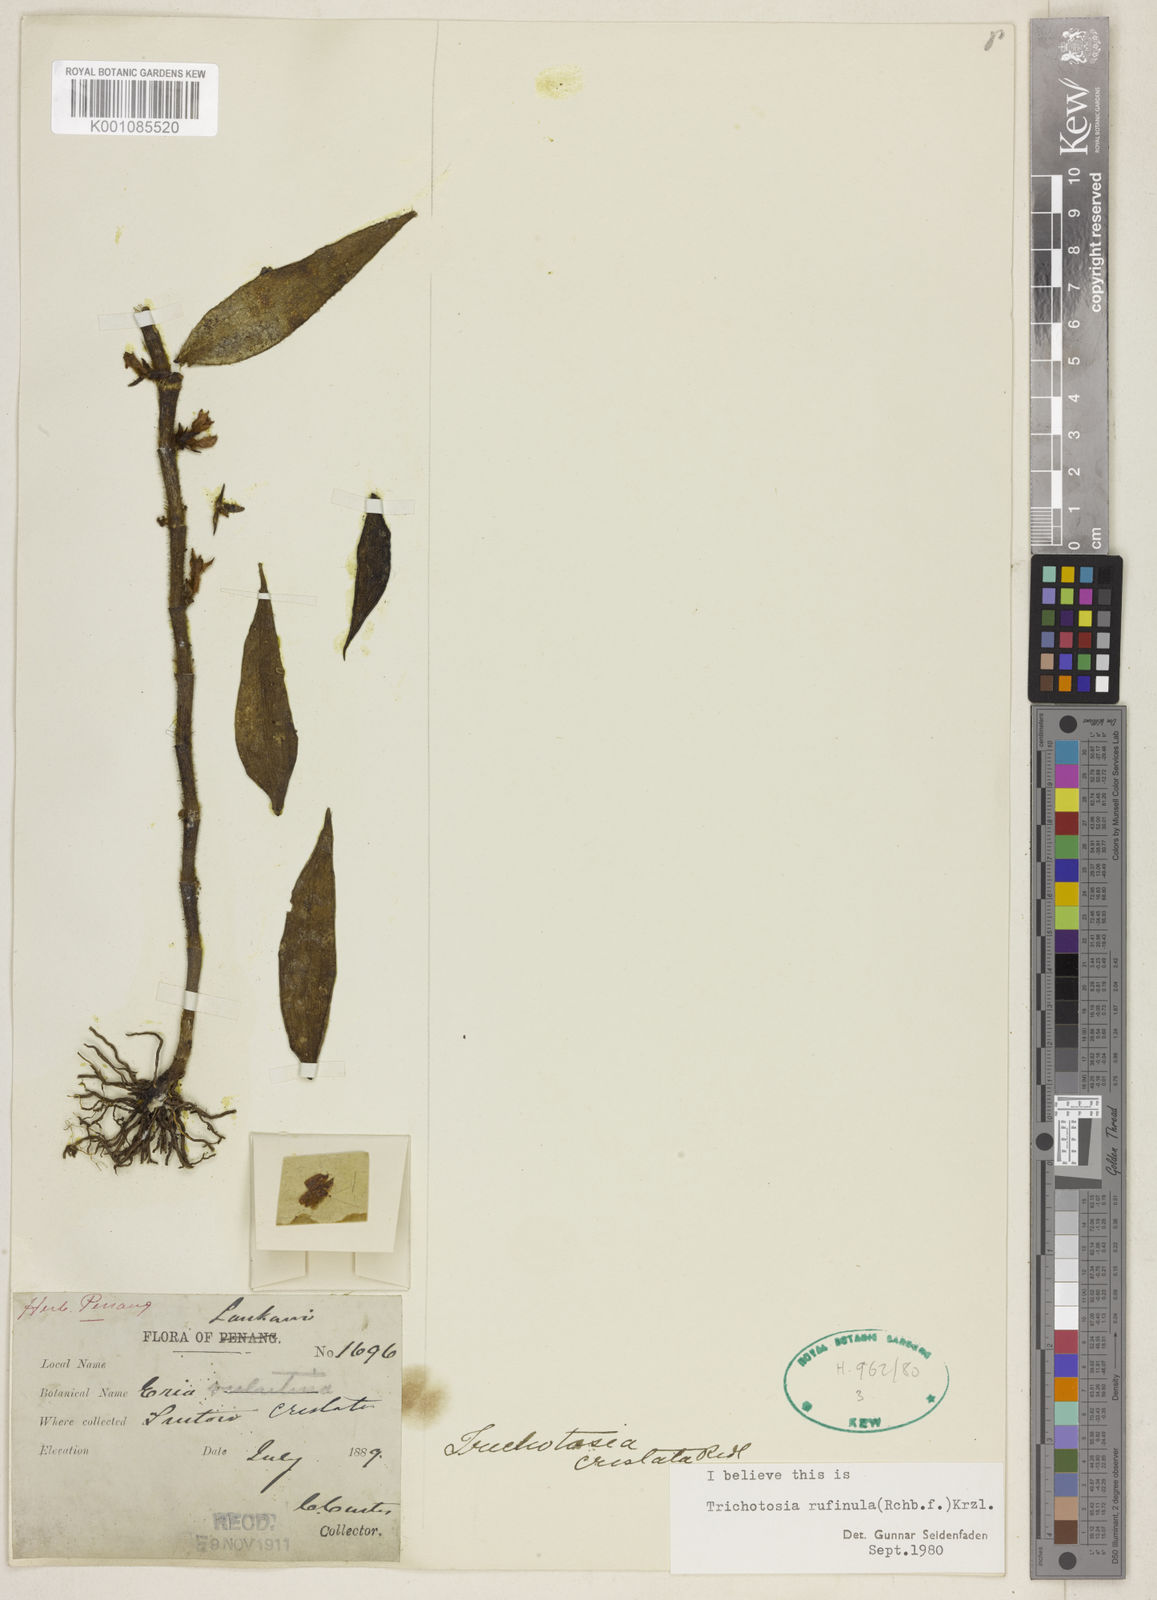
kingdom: Plantae
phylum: Tracheophyta
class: Liliopsida
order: Asparagales
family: Orchidaceae
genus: Trichotosia
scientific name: Trichotosia hispidissima
